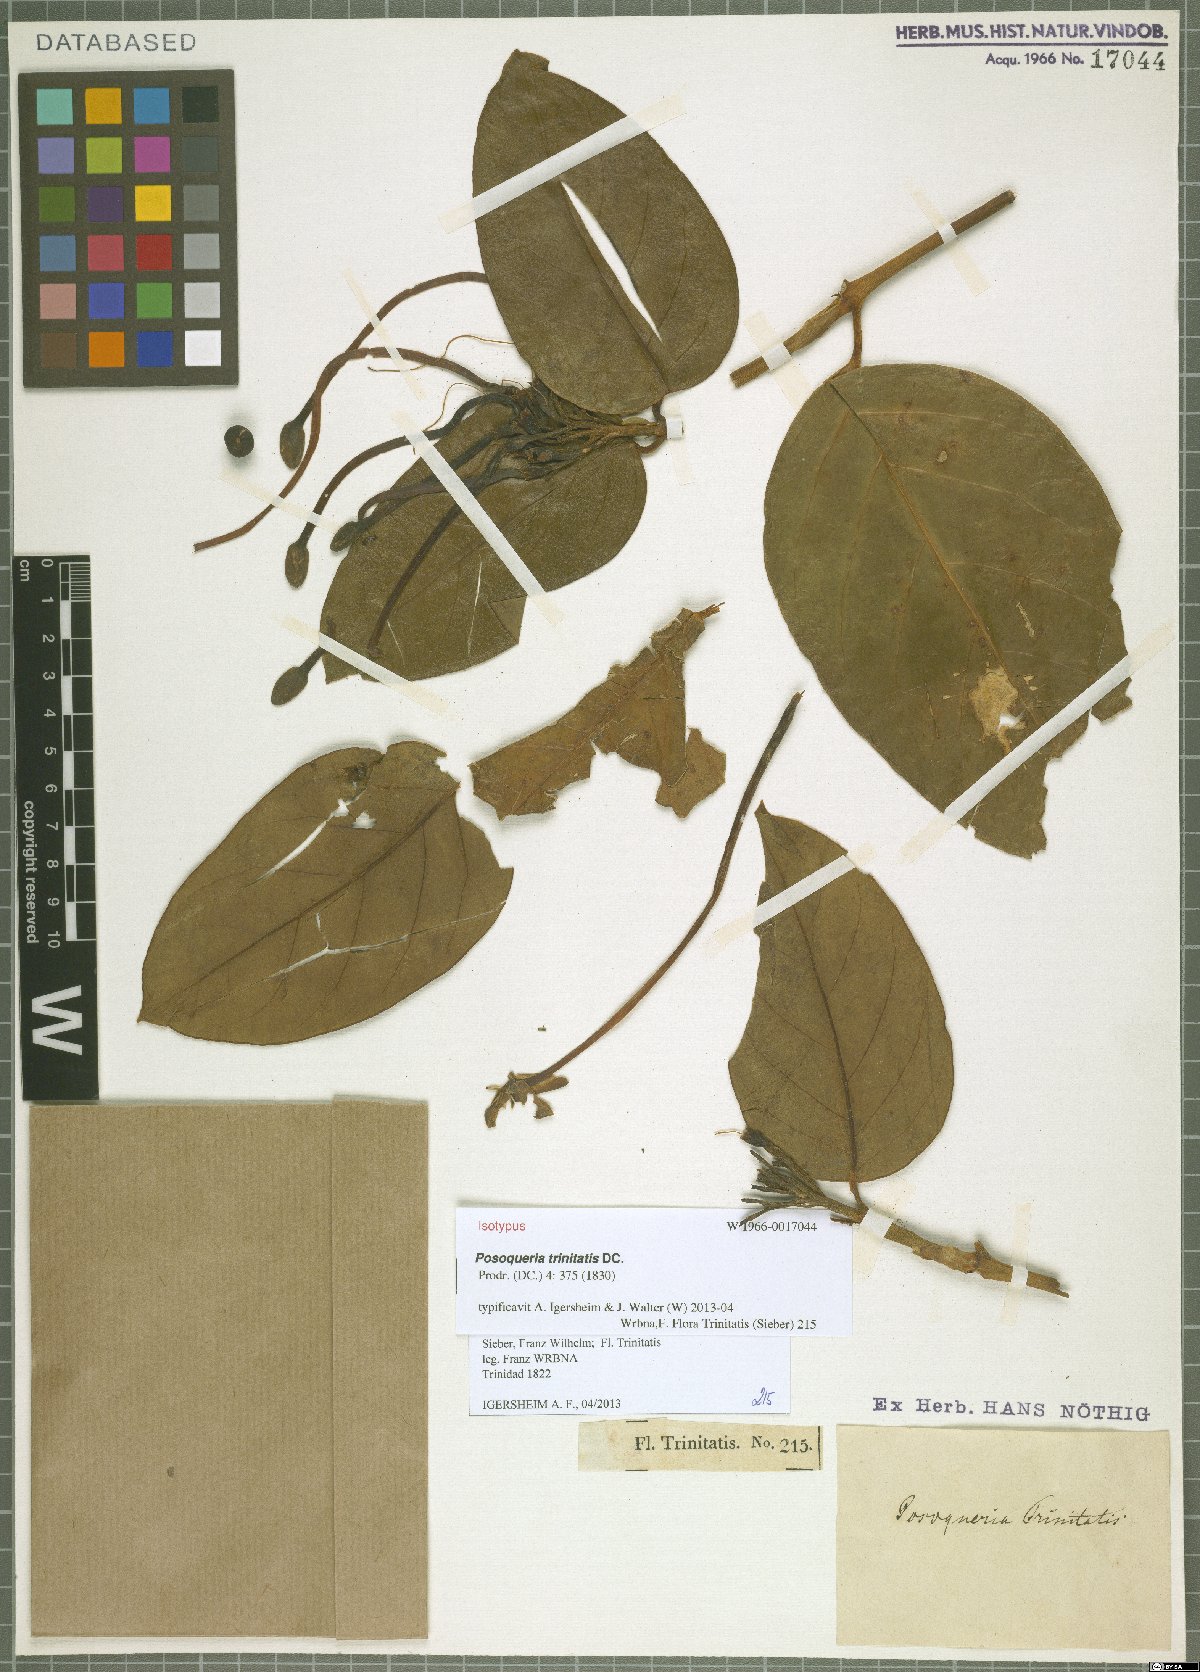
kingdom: Plantae
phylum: Tracheophyta
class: Magnoliopsida
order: Gentianales
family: Rubiaceae
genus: Posoqueria
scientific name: Posoqueria trinitatis
